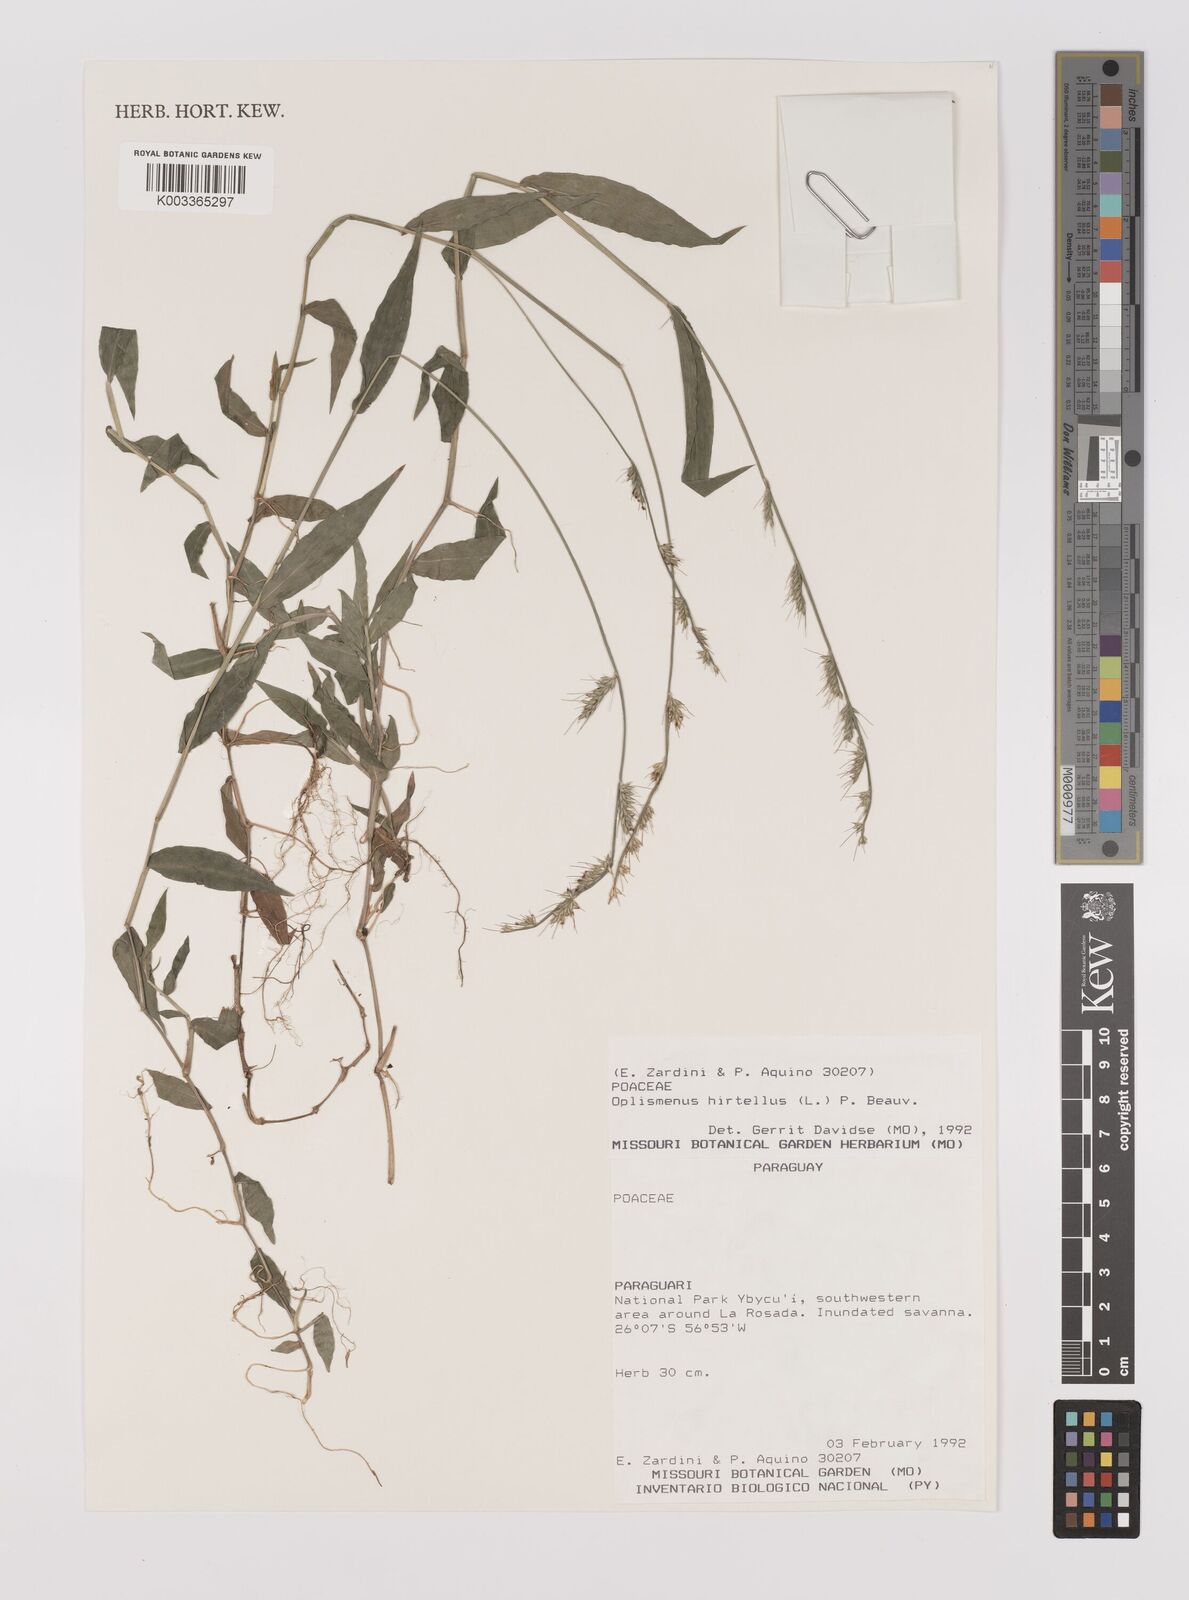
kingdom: Plantae
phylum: Tracheophyta
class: Liliopsida
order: Poales
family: Poaceae
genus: Oplismenus
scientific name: Oplismenus hirtellus
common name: Basketgrass
